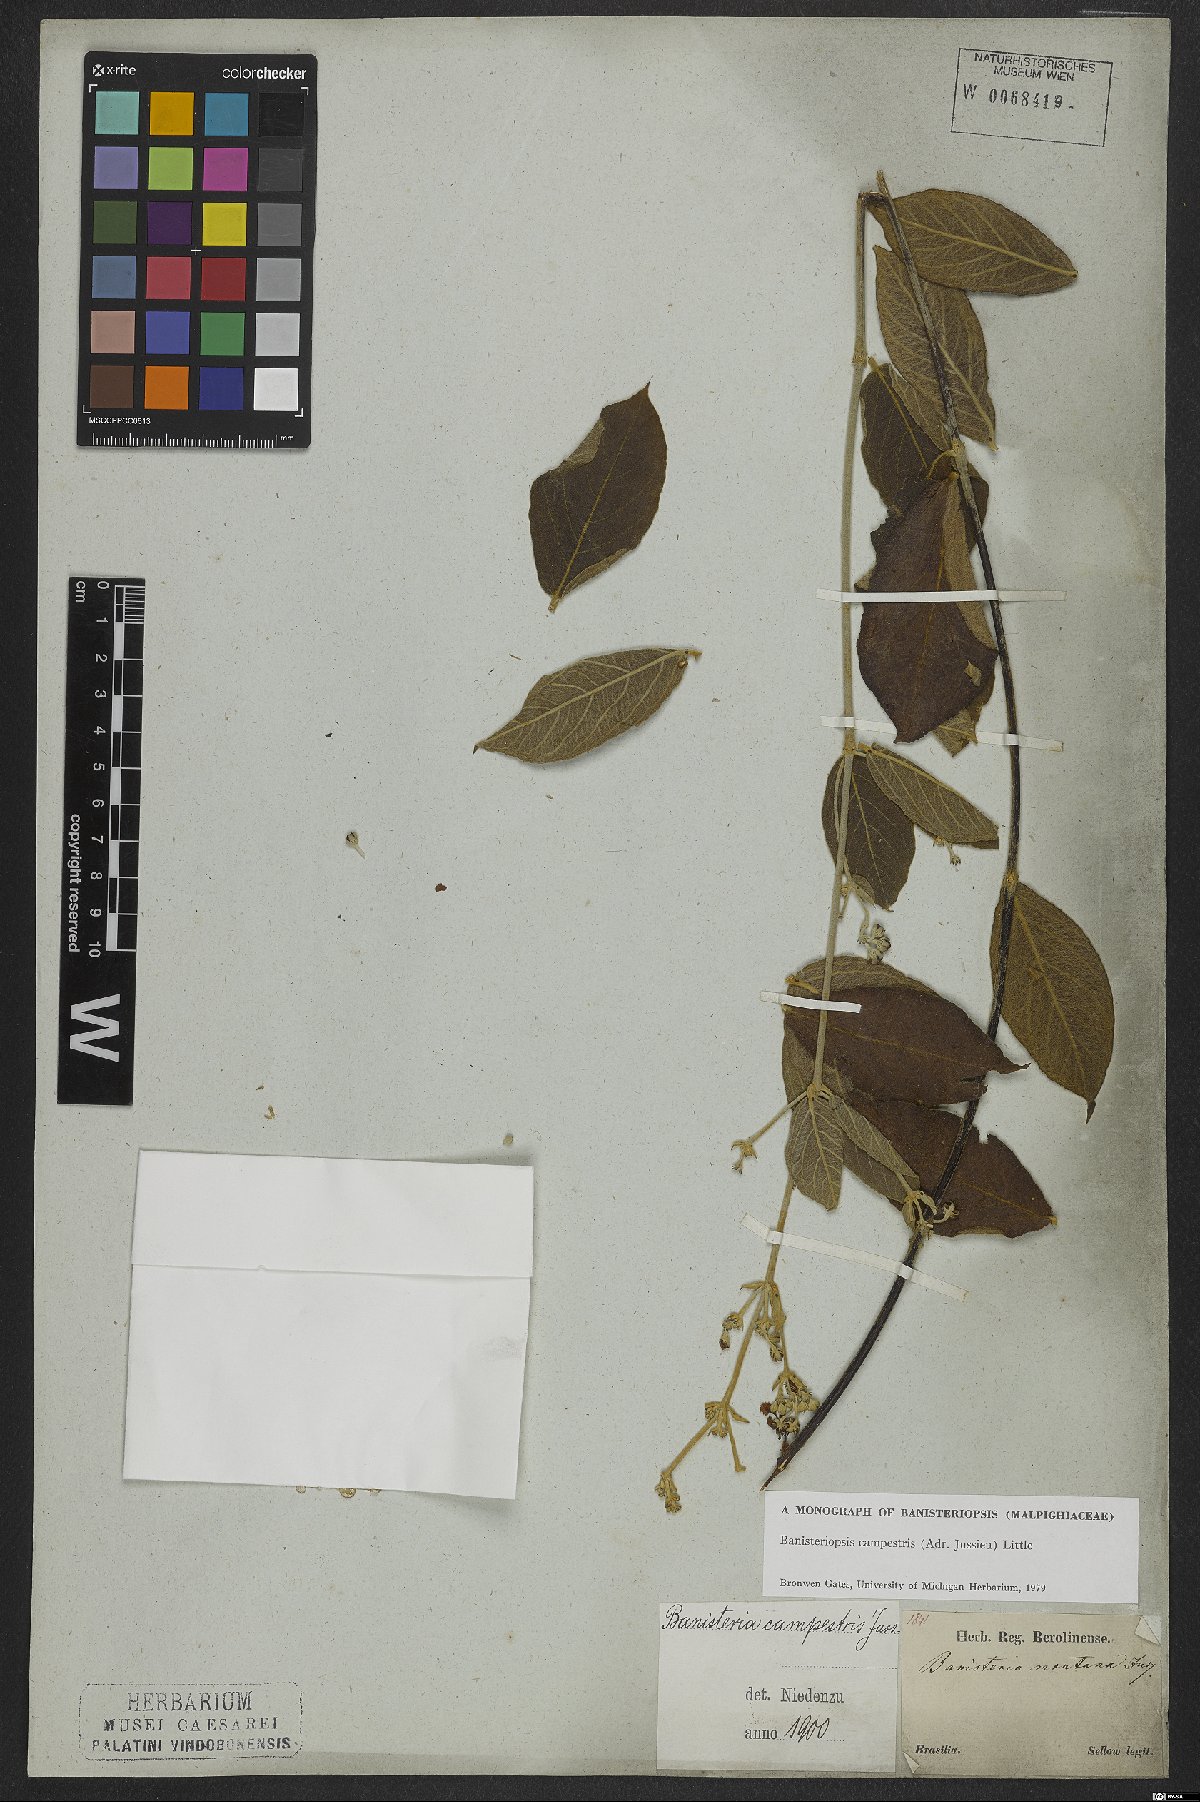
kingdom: Plantae
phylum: Tracheophyta
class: Magnoliopsida
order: Malpighiales
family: Malpighiaceae
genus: Banisteriopsis
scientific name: Banisteriopsis campestris
